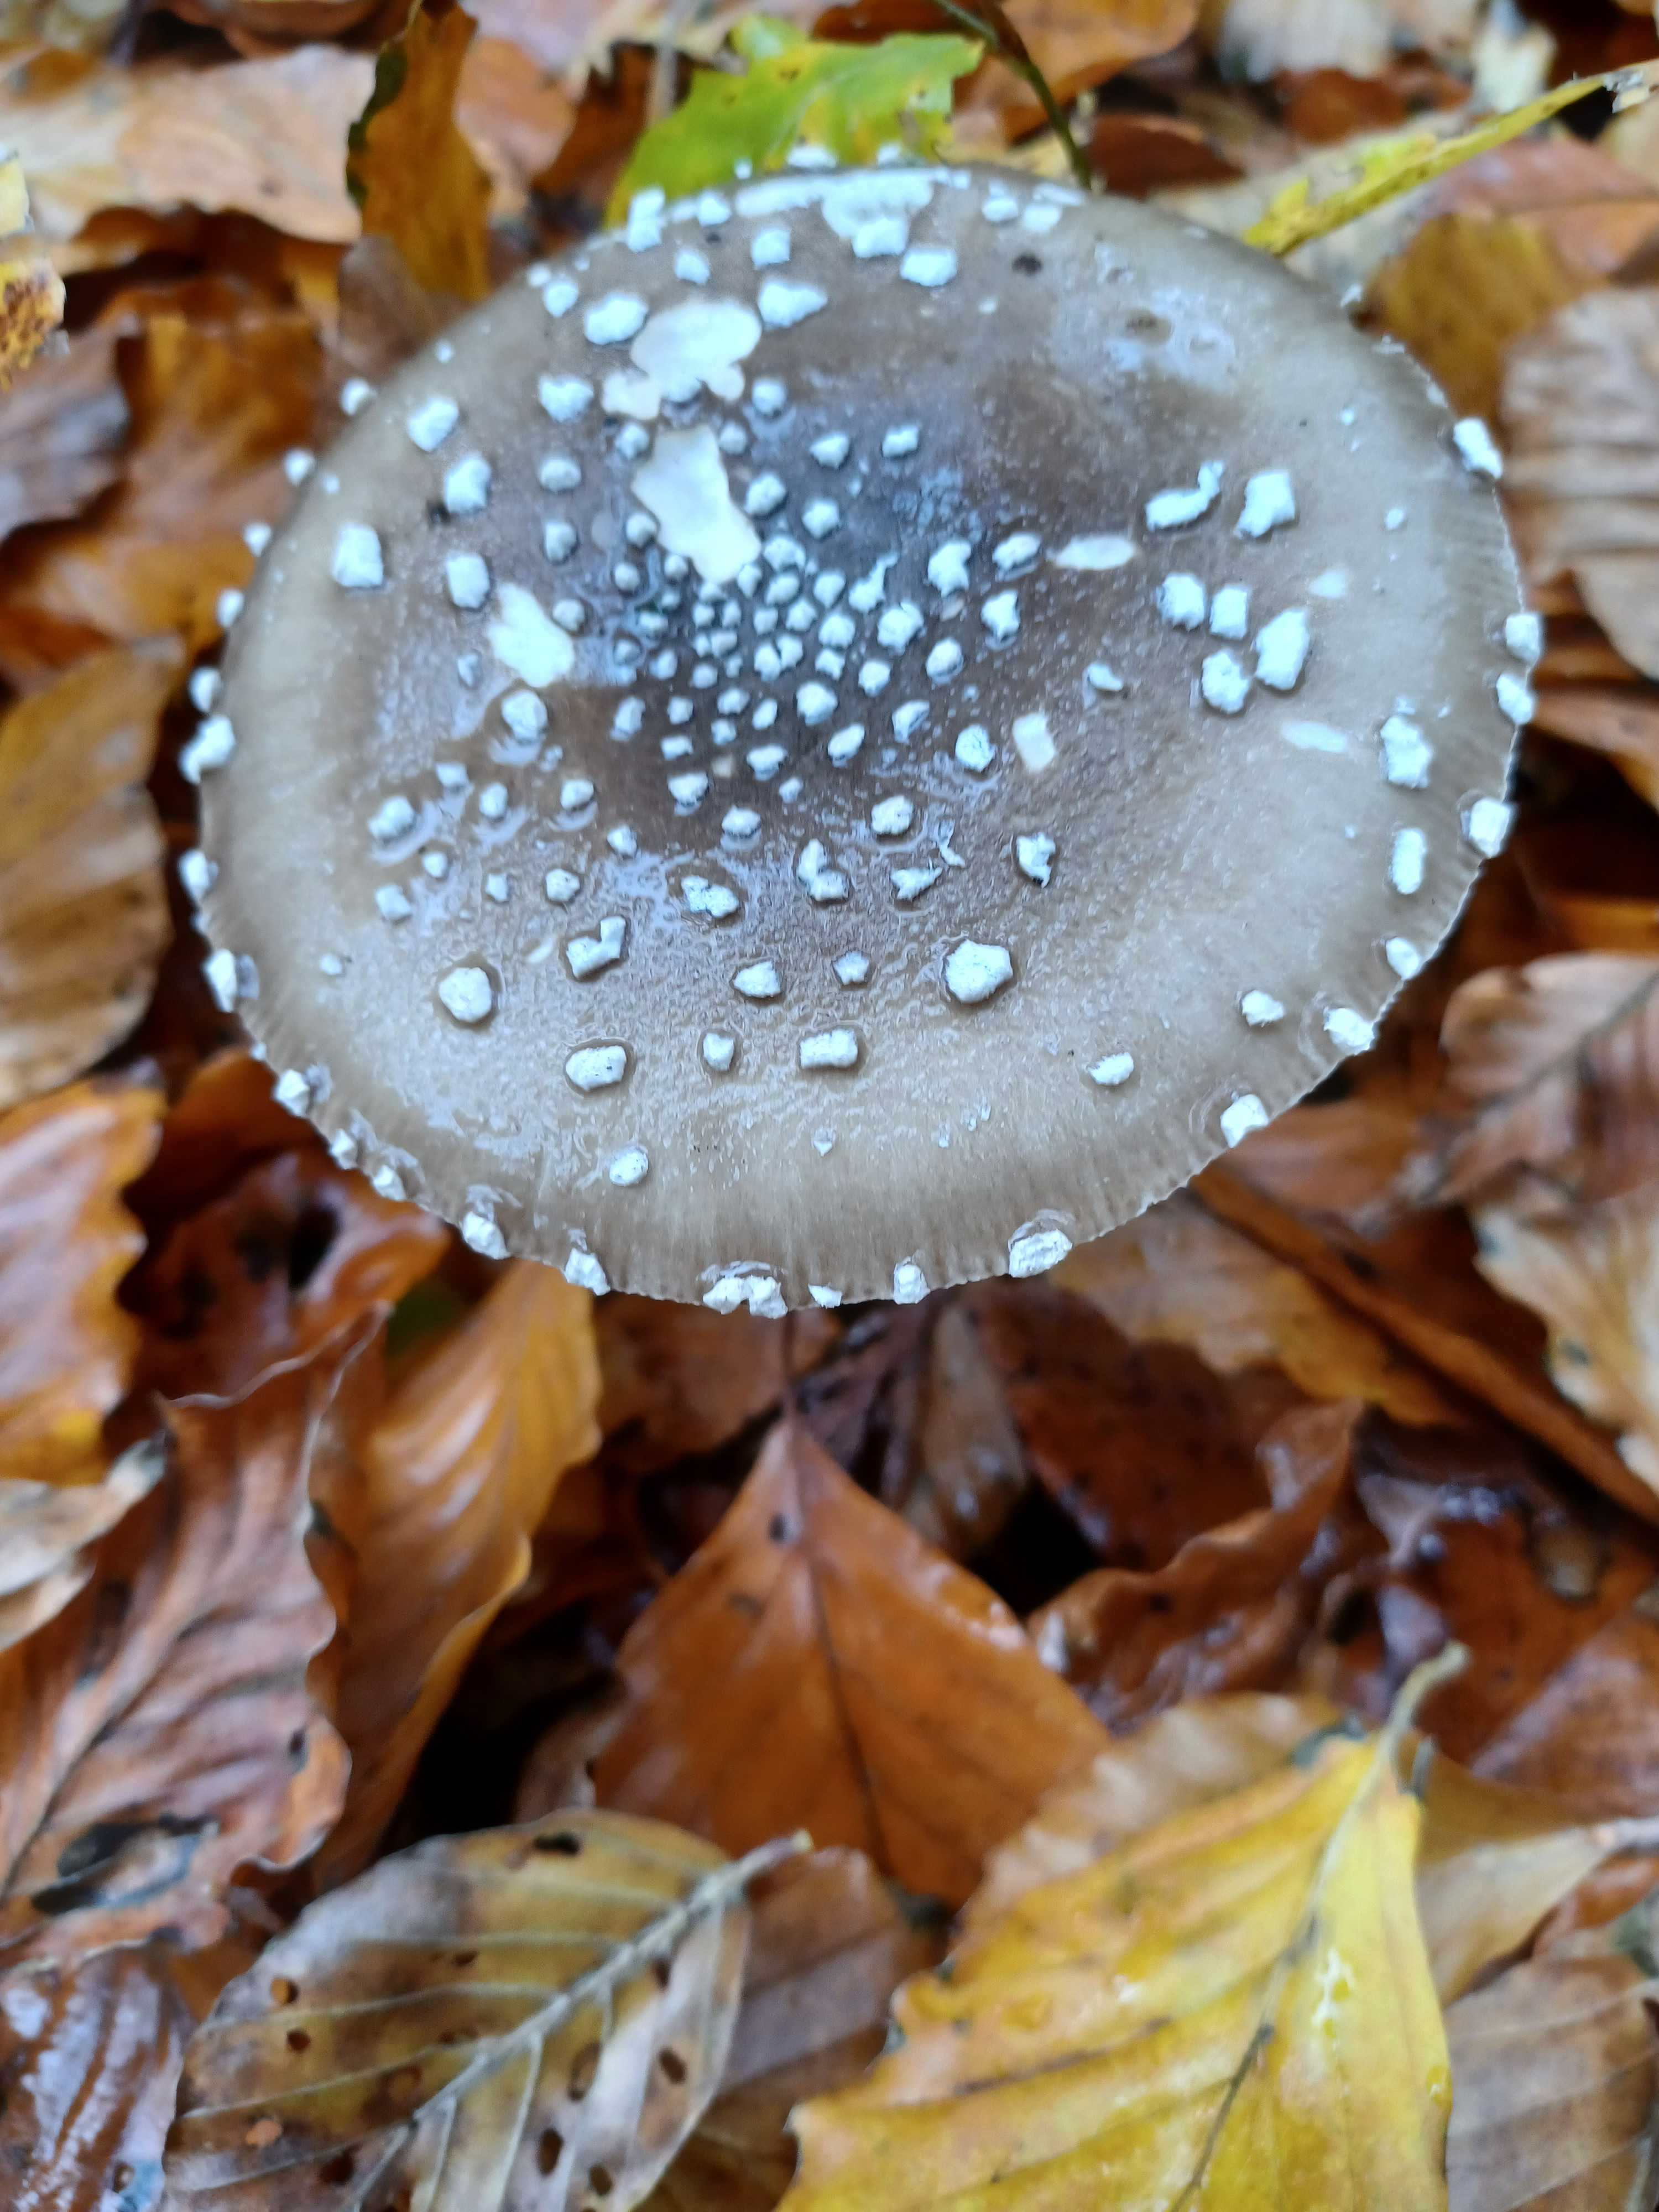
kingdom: Fungi
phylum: Basidiomycota
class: Agaricomycetes
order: Agaricales
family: Amanitaceae
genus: Amanita
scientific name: Amanita pantherina
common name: panter-fluesvamp
